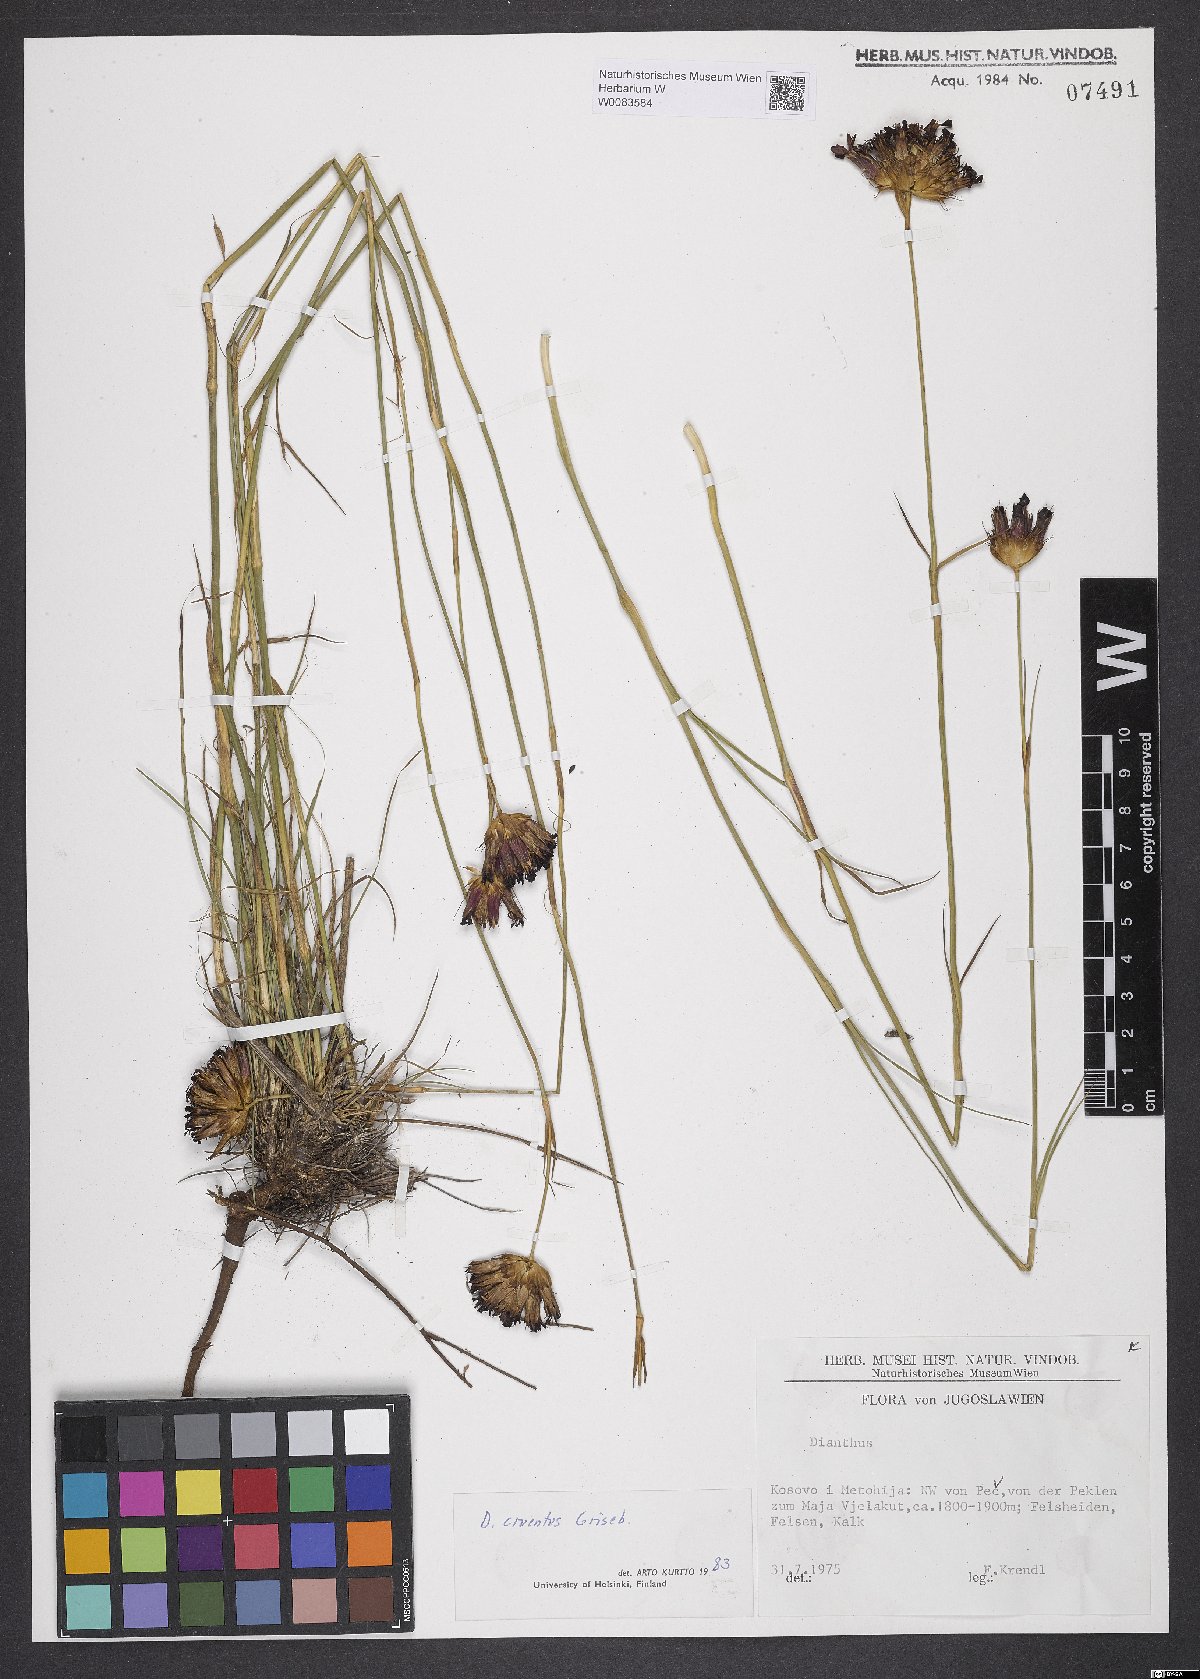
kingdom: Plantae
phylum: Tracheophyta
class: Magnoliopsida
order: Caryophyllales
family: Caryophyllaceae
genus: Dianthus
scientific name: Dianthus cruentus
